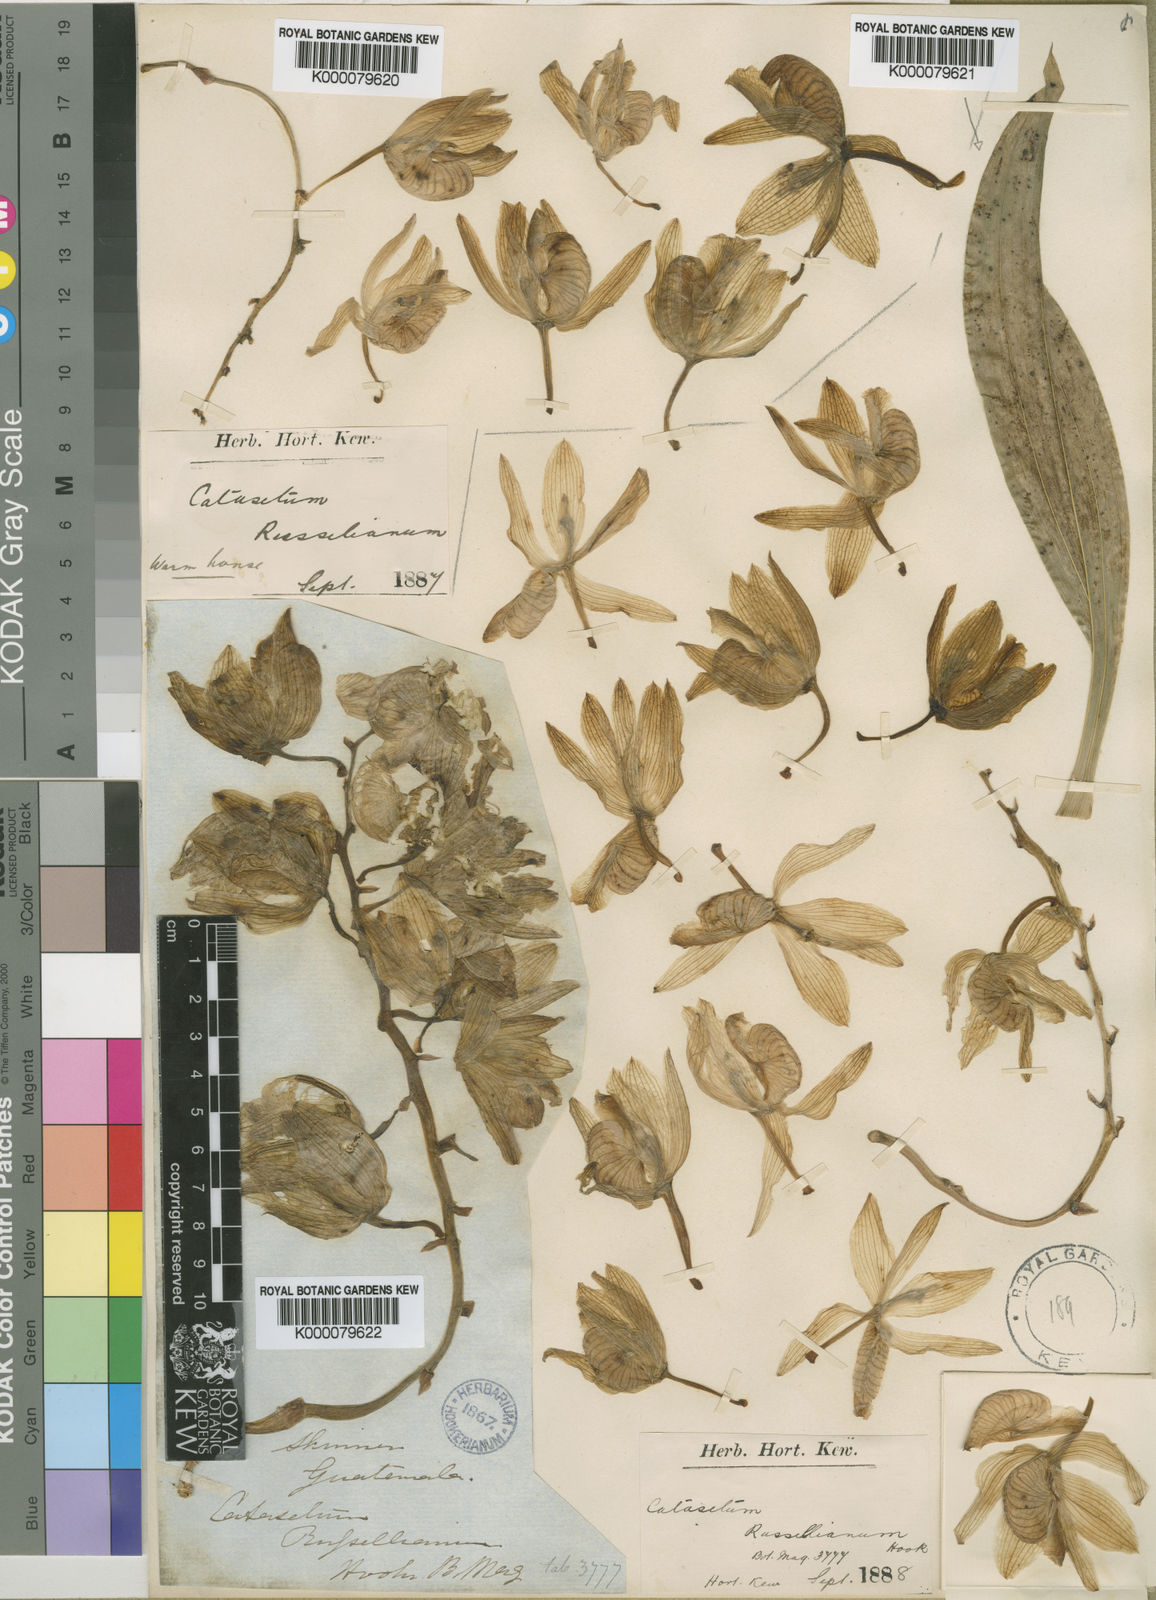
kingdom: Plantae
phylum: Tracheophyta
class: Liliopsida
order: Asparagales
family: Orchidaceae
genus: Clowesia
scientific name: Clowesia russelliana
